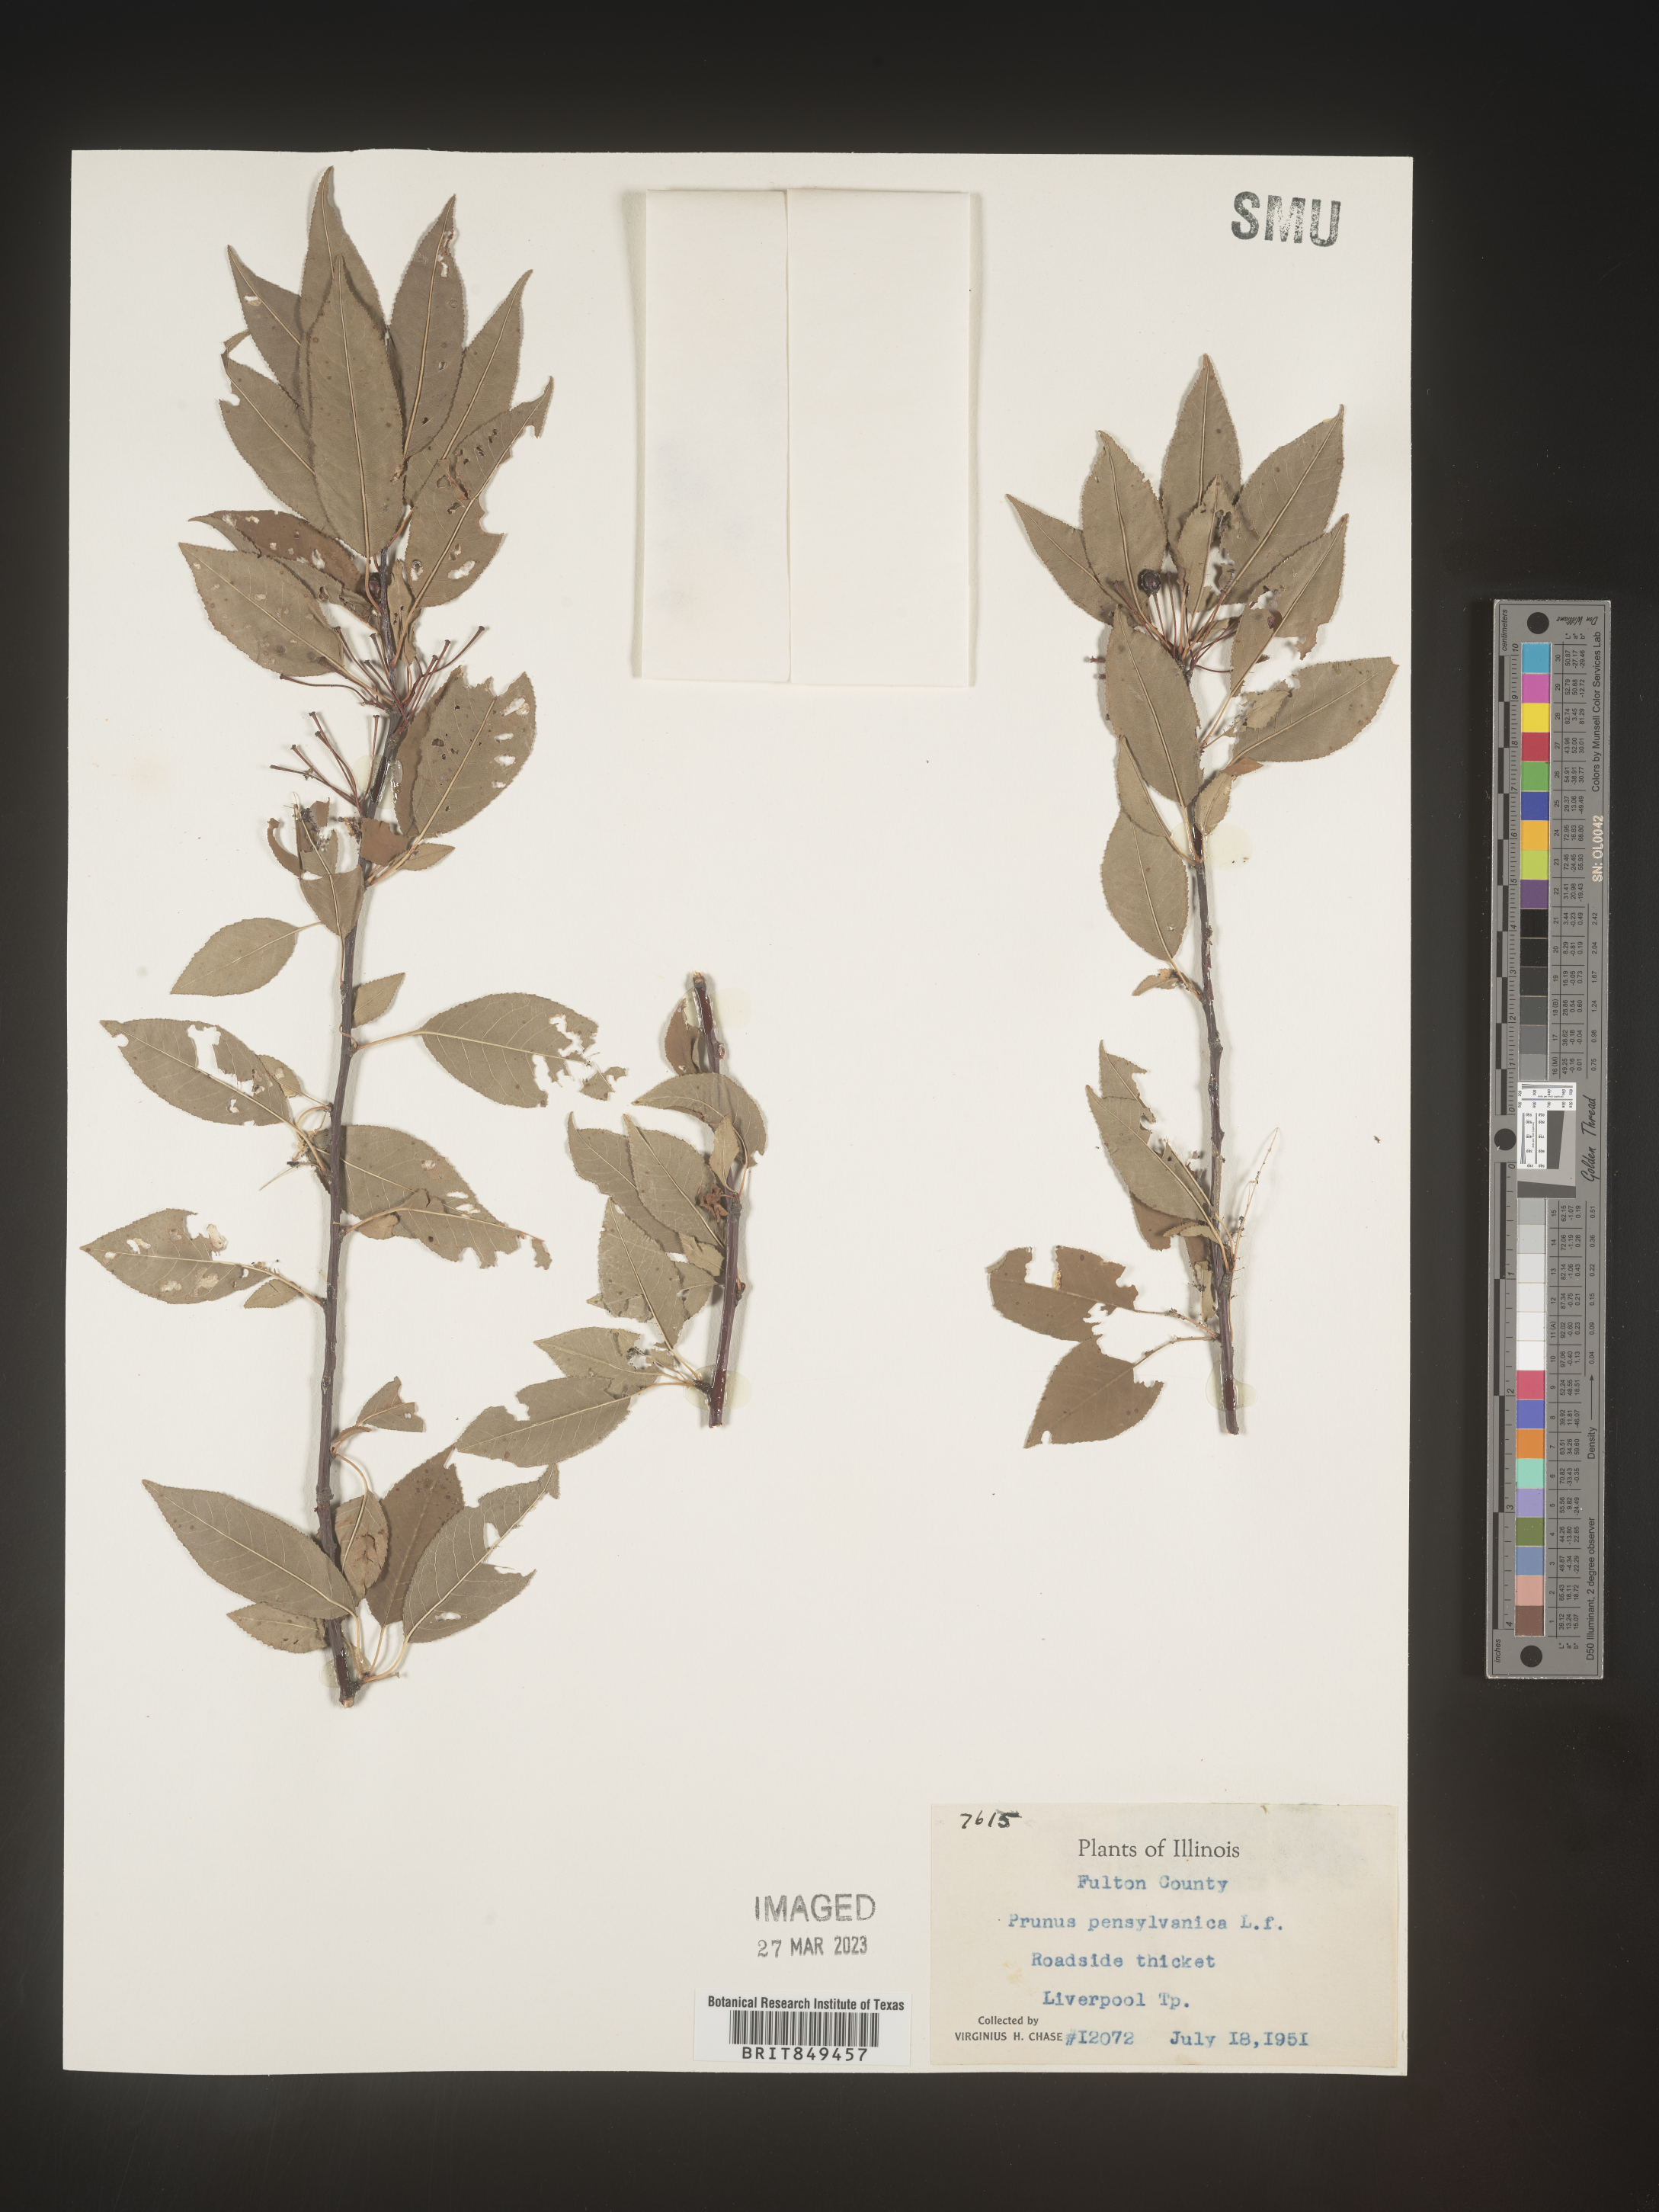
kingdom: Plantae
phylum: Tracheophyta
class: Magnoliopsida
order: Rosales
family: Rosaceae
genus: Prunus
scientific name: Prunus pensylvanica
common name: Pin cherry
